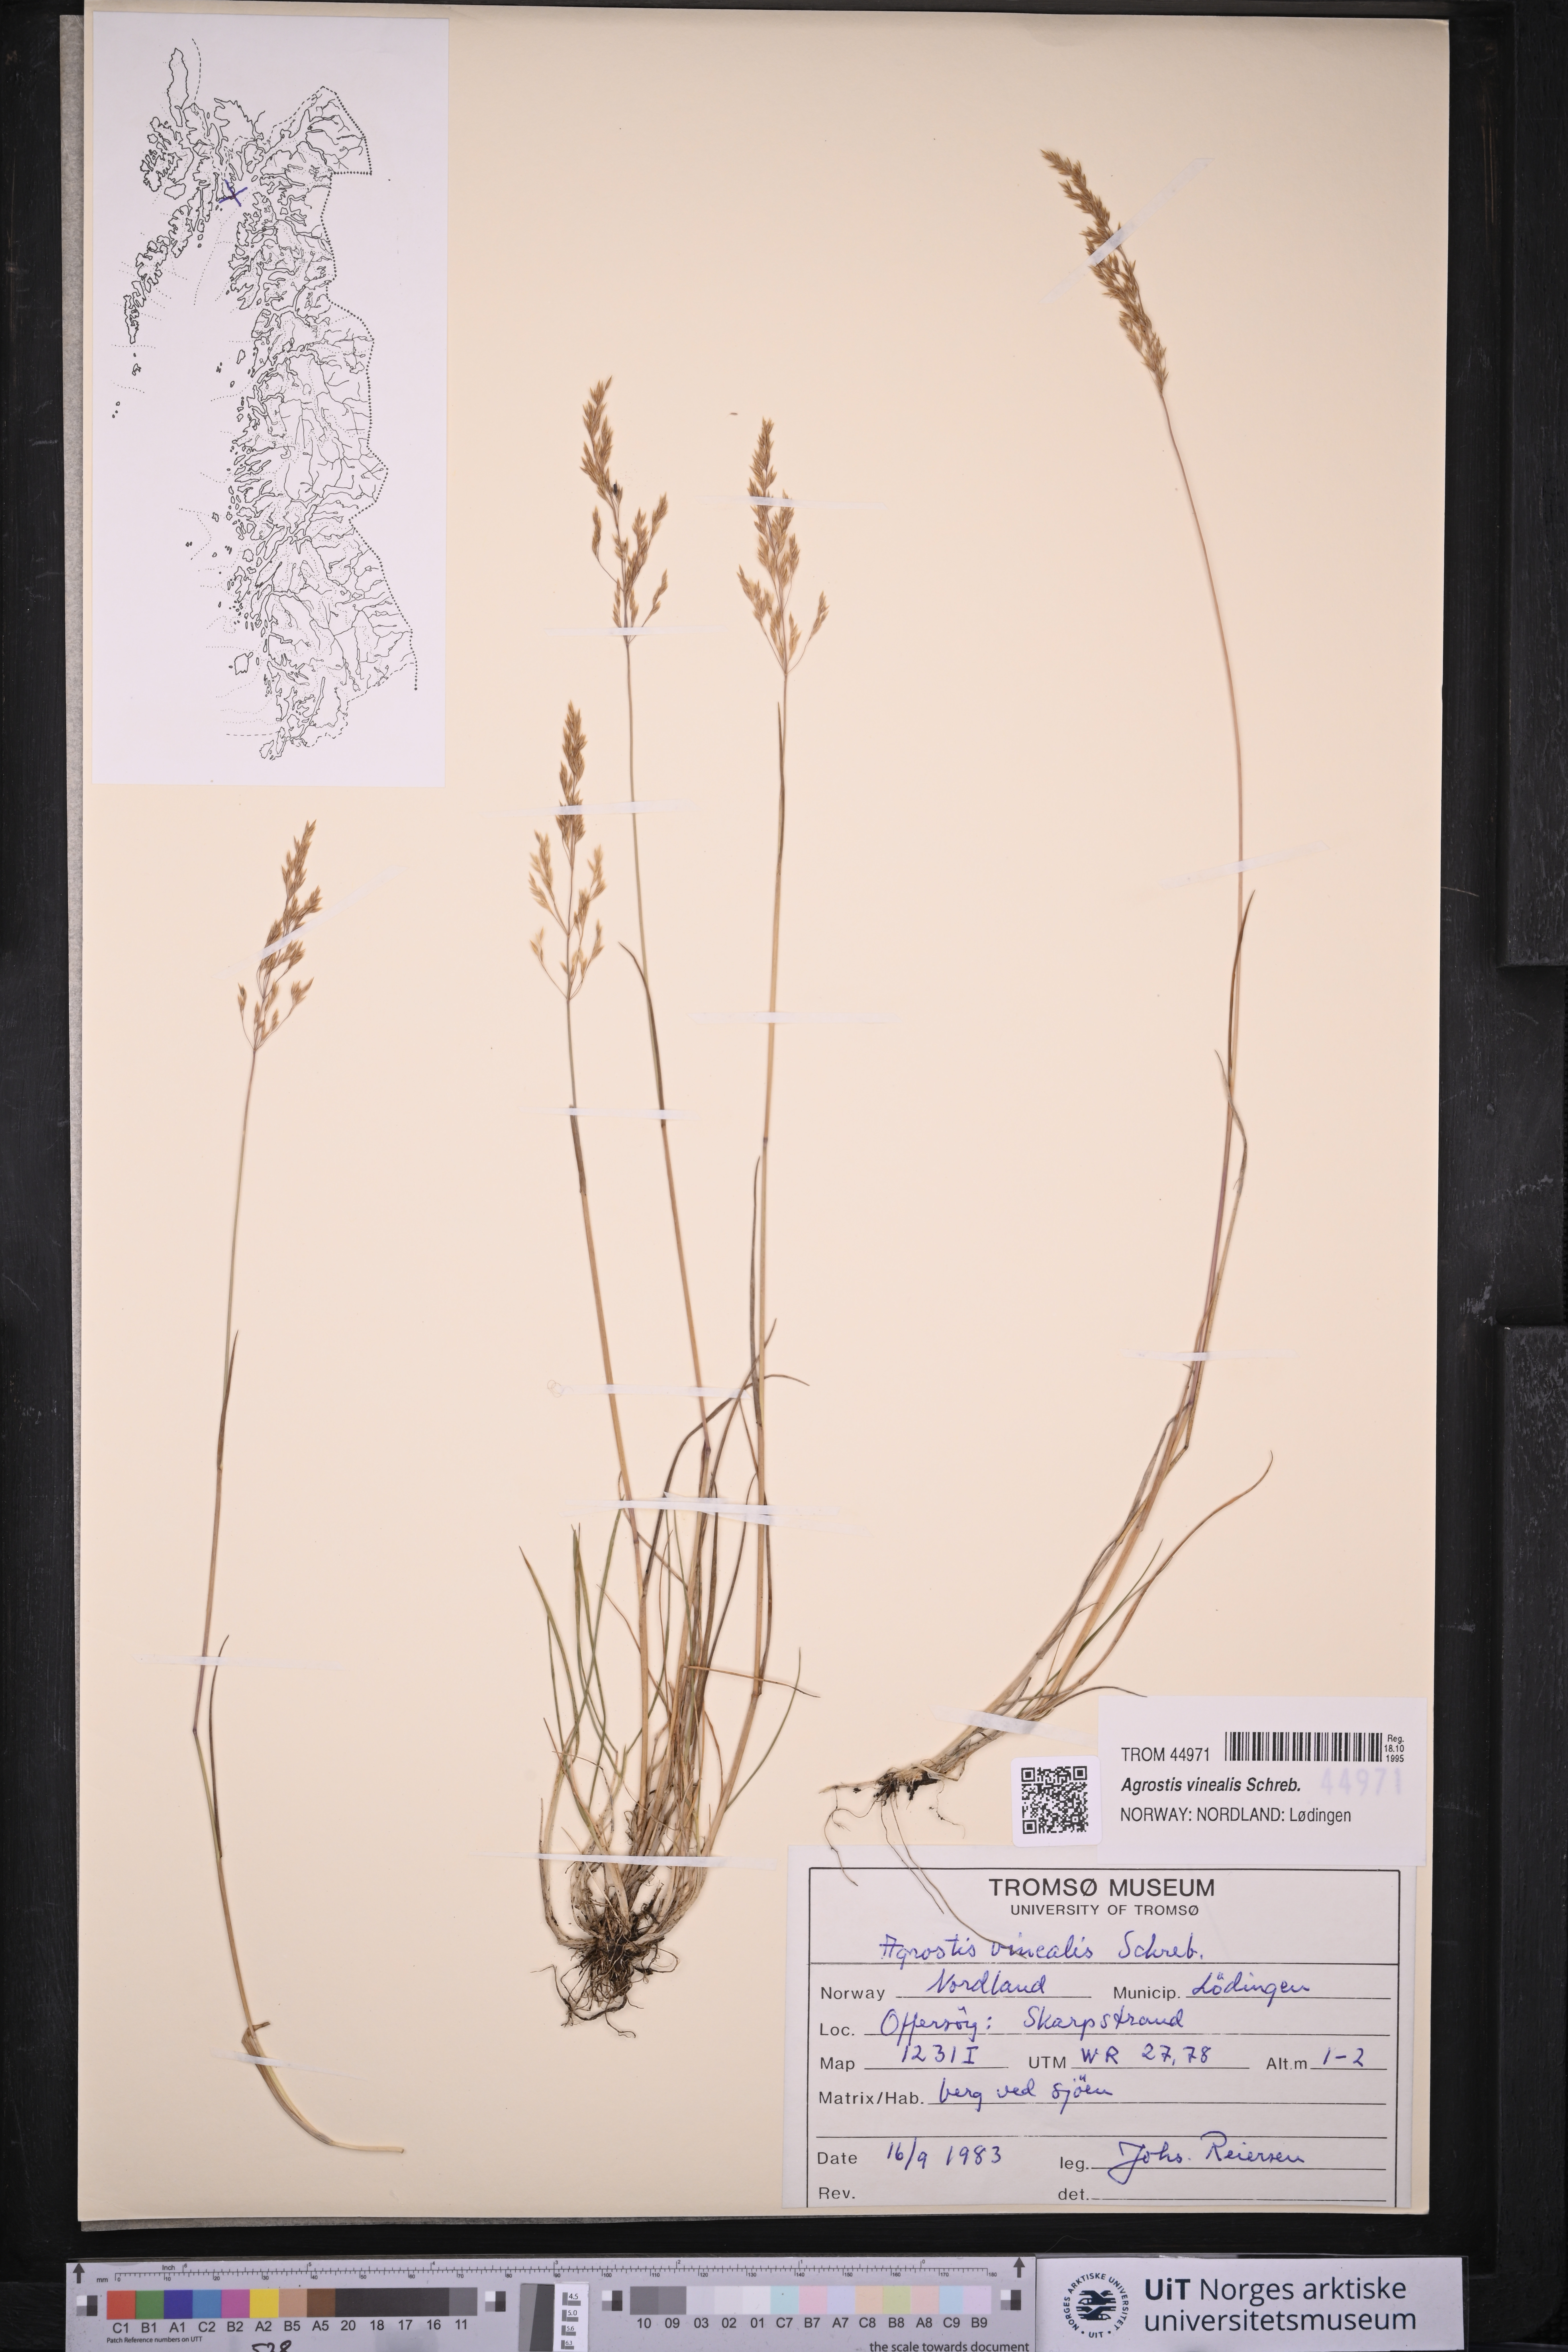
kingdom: Plantae
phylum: Tracheophyta
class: Liliopsida
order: Poales
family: Poaceae
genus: Agrostis
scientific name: Agrostis vinealis
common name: Brown bent
